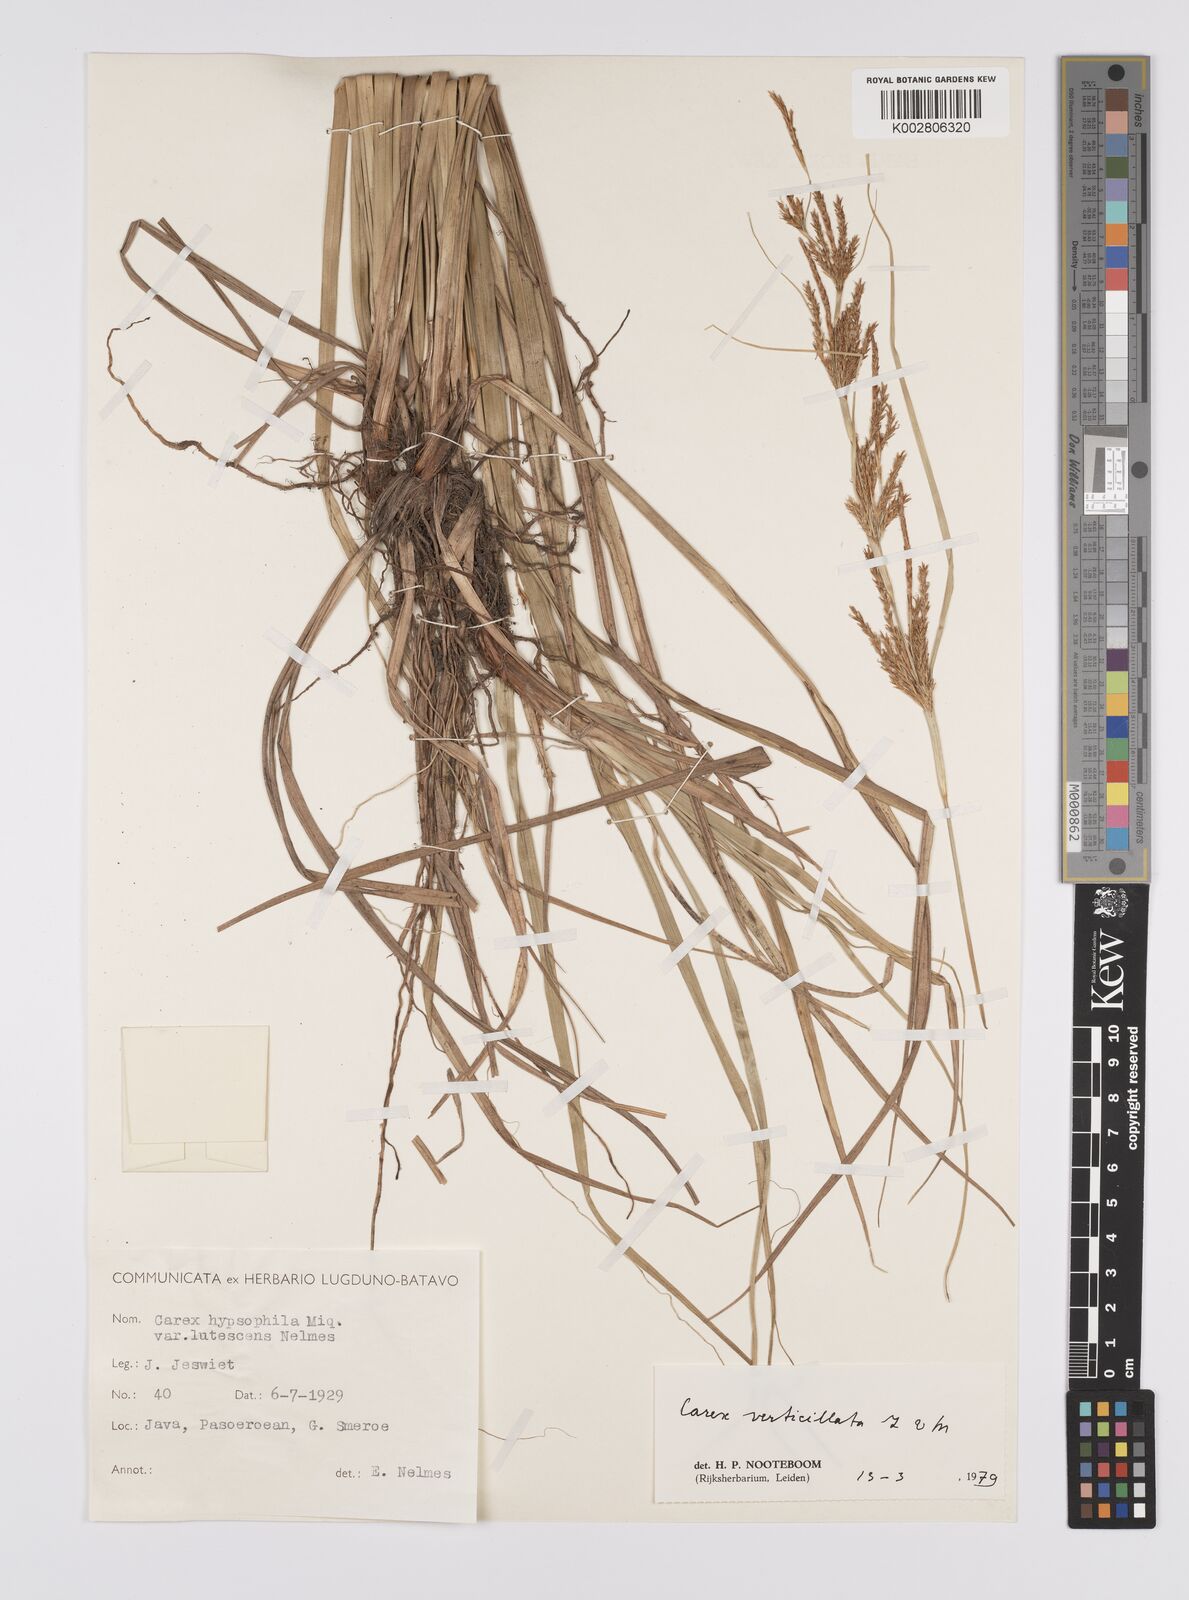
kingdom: Plantae
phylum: Tracheophyta
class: Liliopsida
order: Poales
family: Cyperaceae
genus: Carex
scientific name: Carex verticillata
